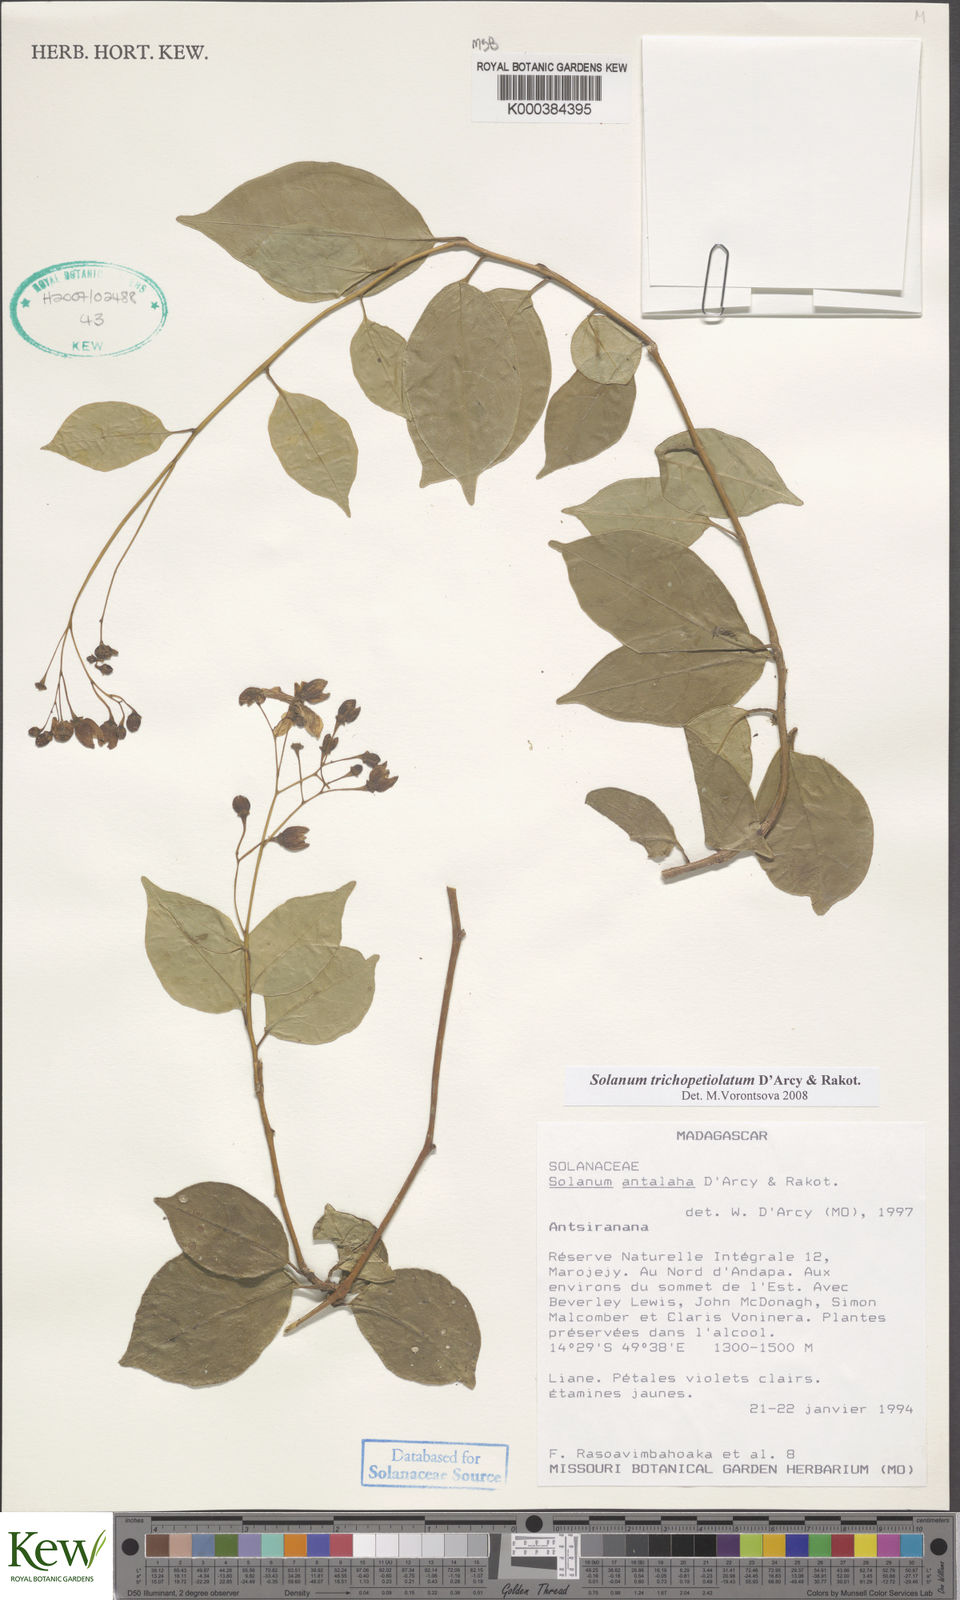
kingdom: Plantae
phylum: Tracheophyta
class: Magnoliopsida
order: Solanales
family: Solanaceae
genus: Solanum
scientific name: Solanum antalaha
